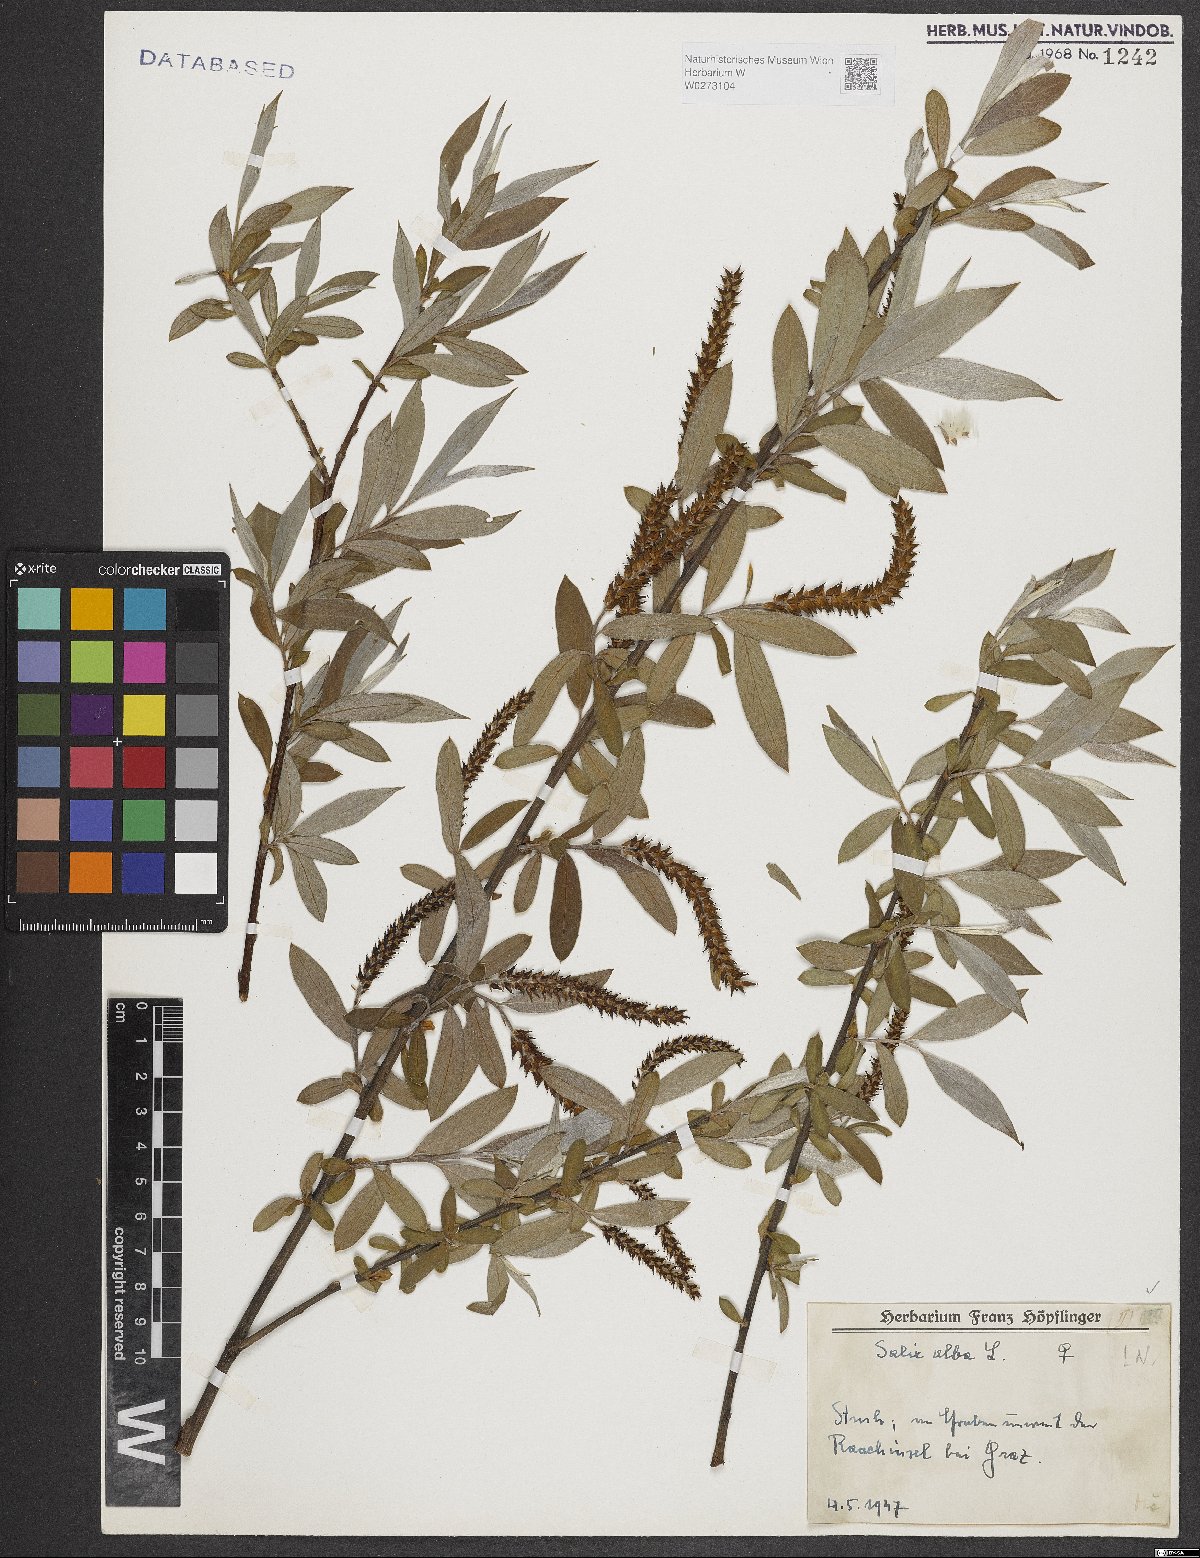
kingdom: Plantae
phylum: Tracheophyta
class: Magnoliopsida
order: Malpighiales
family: Salicaceae
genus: Salix
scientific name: Salix alba
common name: White willow
